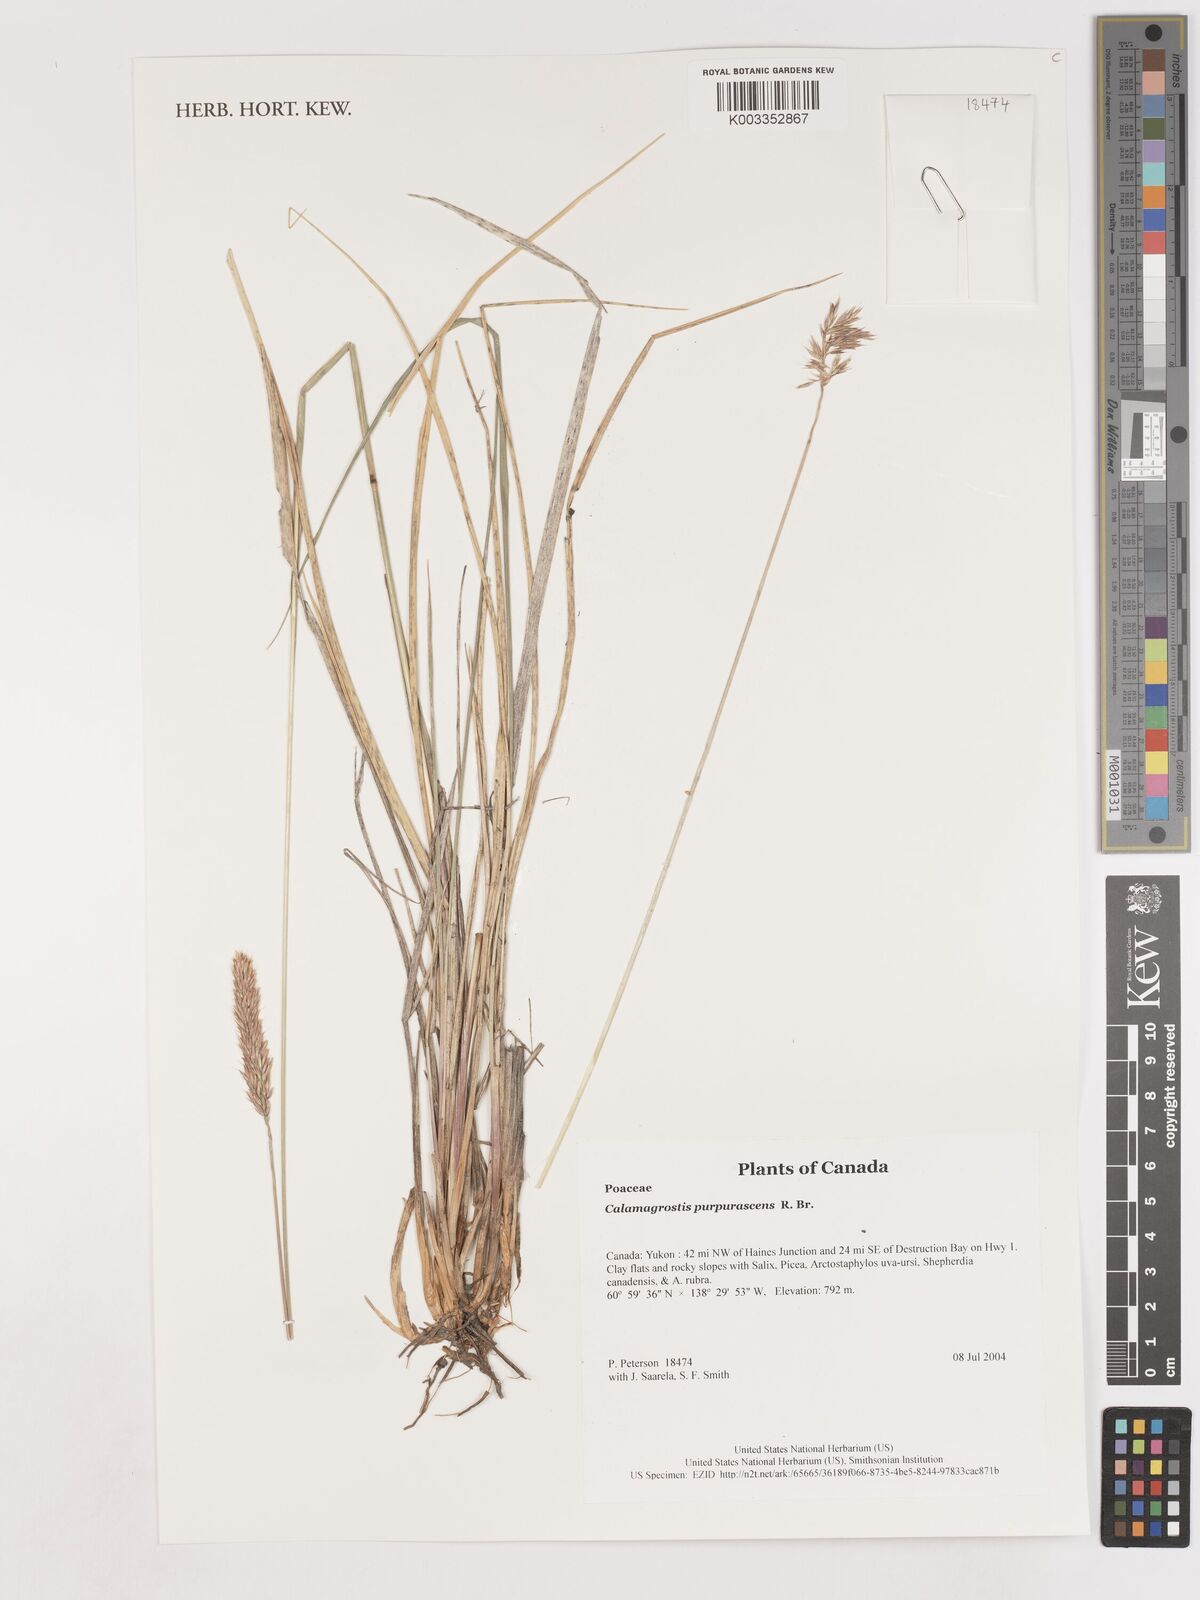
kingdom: Plantae
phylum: Tracheophyta
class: Liliopsida
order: Poales
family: Poaceae
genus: Calamagrostis
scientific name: Calamagrostis purpurascens
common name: Purple reedgrass
